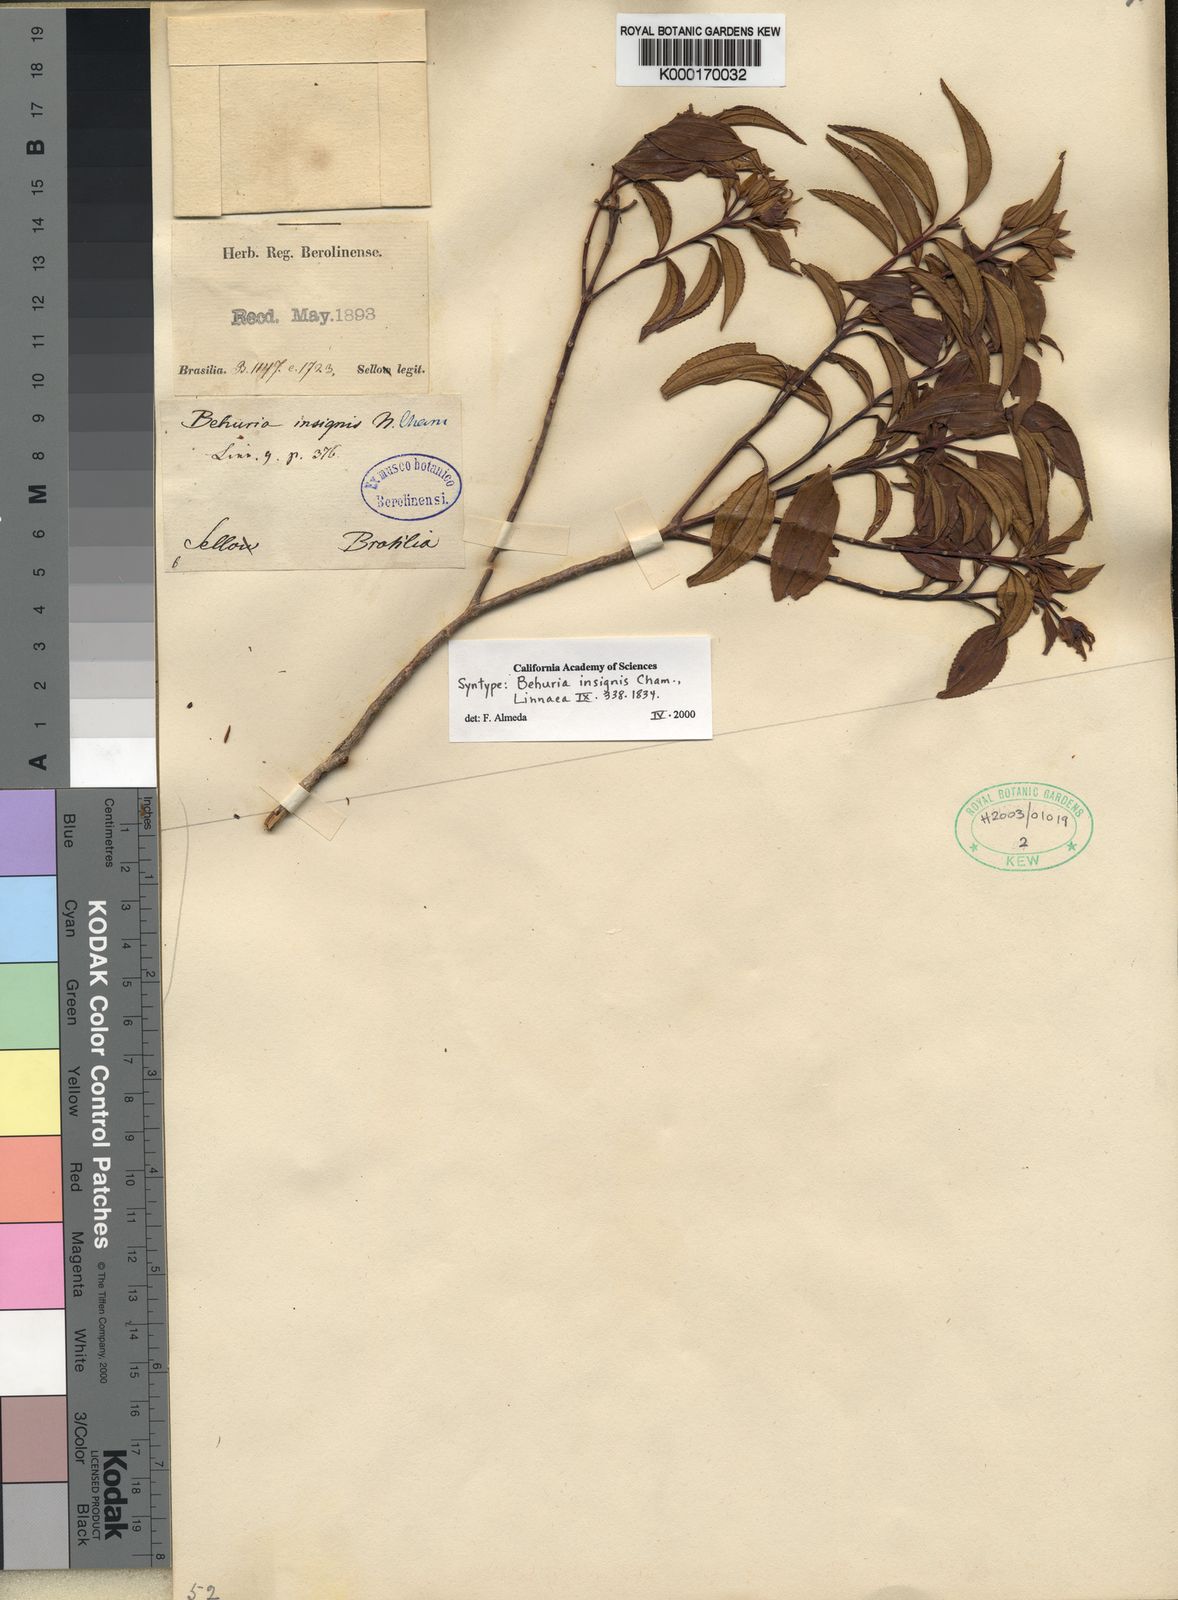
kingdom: Plantae
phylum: Tracheophyta
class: Magnoliopsida
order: Myrtales
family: Melastomataceae
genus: Huberia
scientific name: Huberia insignis
